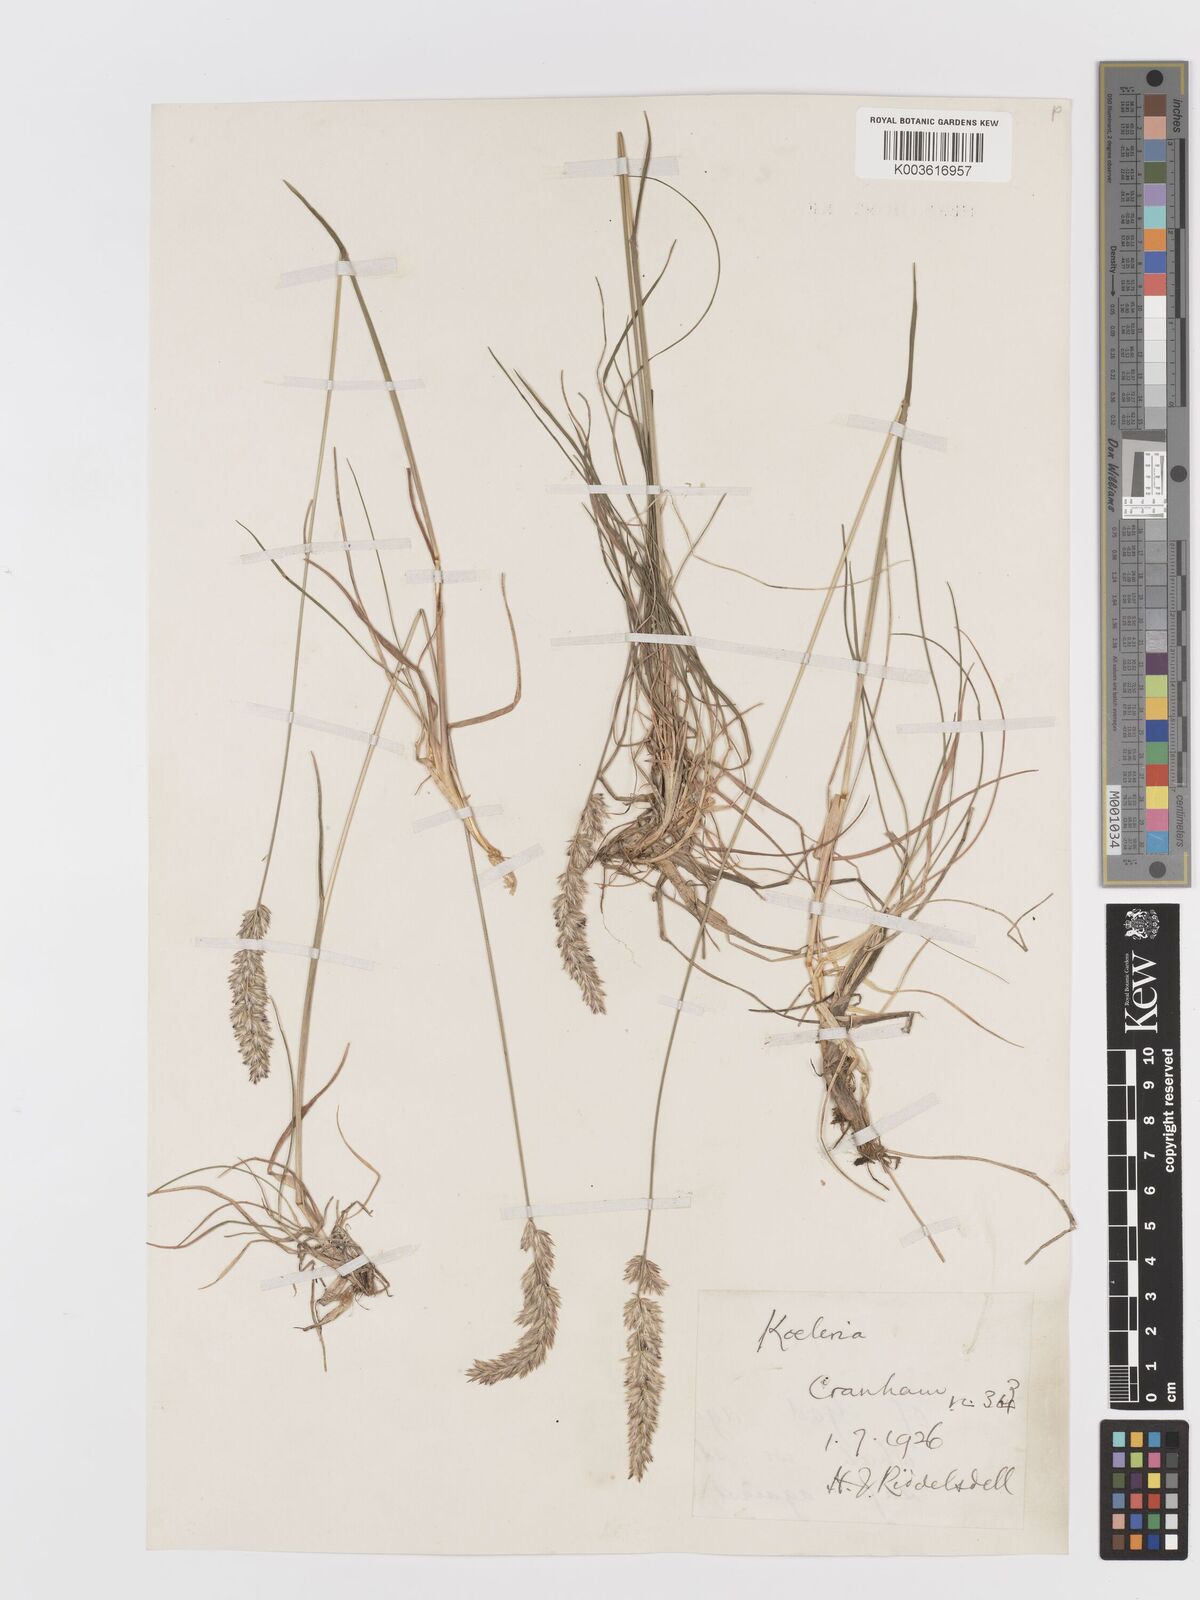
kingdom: Plantae
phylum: Tracheophyta
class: Liliopsida
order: Poales
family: Poaceae
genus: Koeleria
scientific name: Koeleria macrantha
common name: Crested hair-grass
